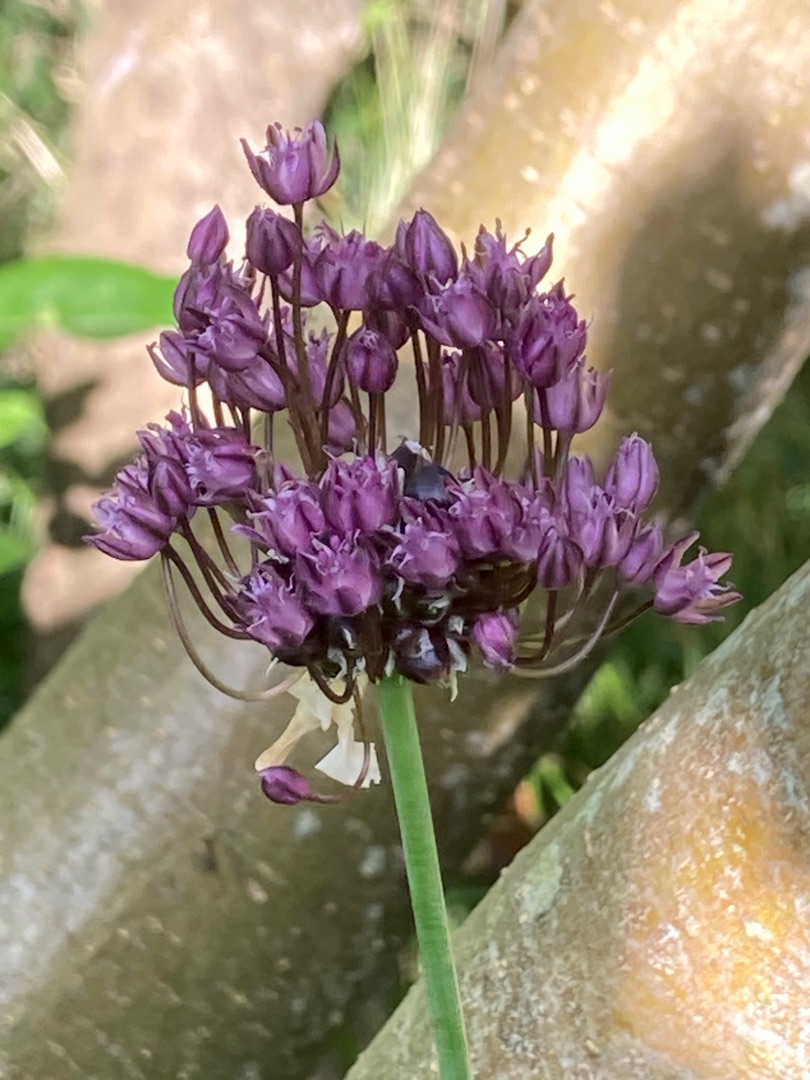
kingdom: Plantae
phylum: Tracheophyta
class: Liliopsida
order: Asparagales
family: Amaryllidaceae
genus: Allium
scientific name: Allium scorodoprasum
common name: Skov-løg
